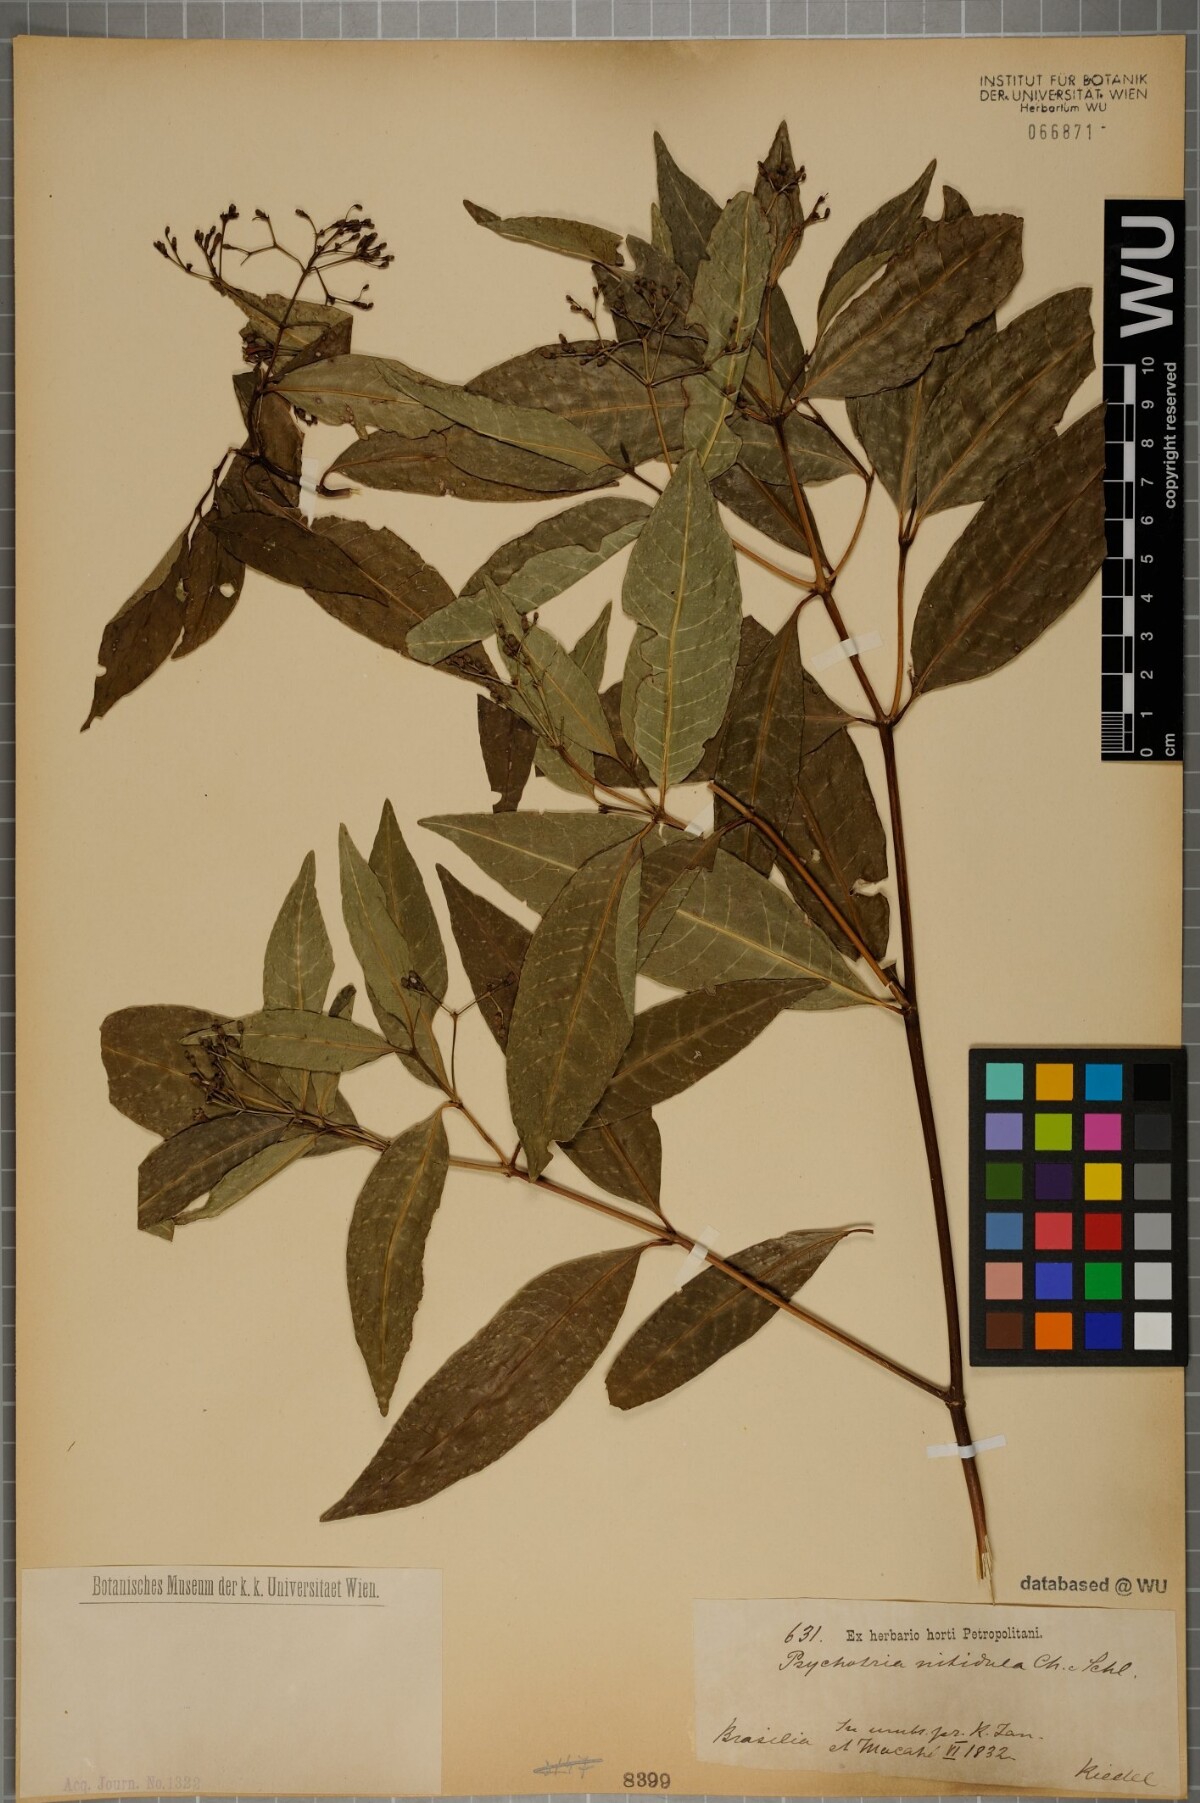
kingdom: Plantae
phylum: Tracheophyta
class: Magnoliopsida
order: Gentianales
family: Rubiaceae
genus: Psychotria
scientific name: Psychotria leiocarpa
